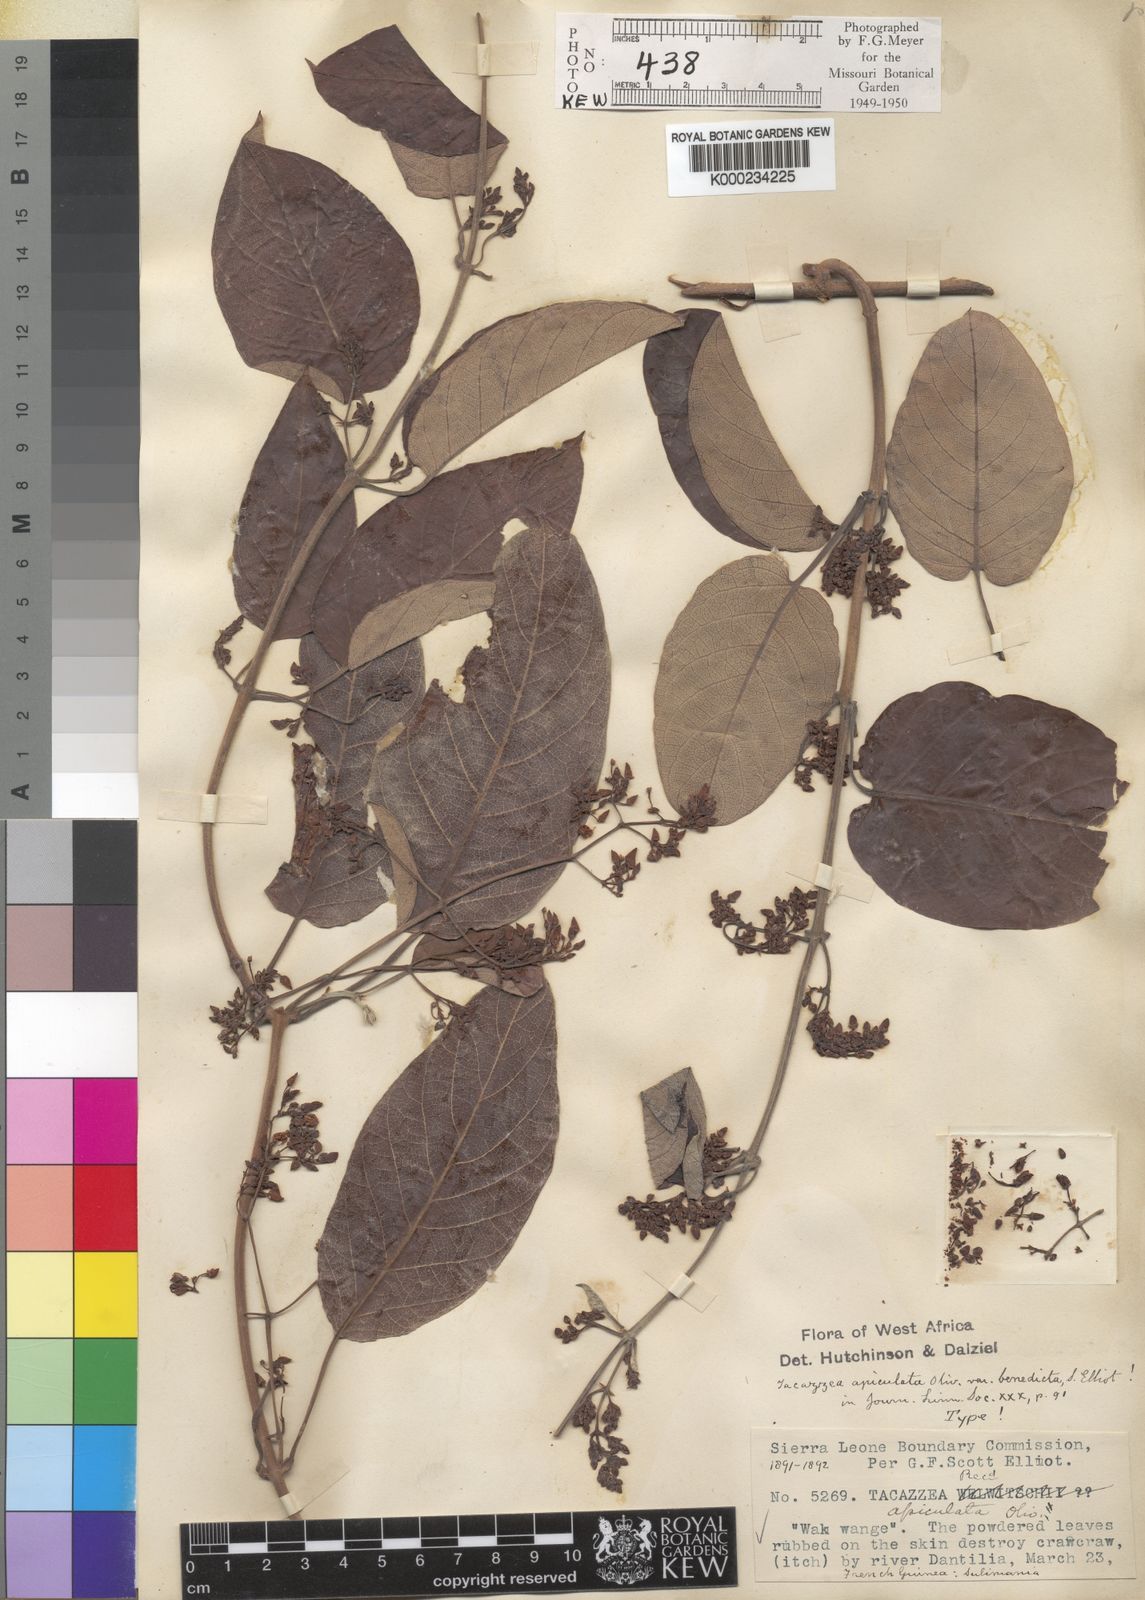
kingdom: Plantae
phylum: Tracheophyta
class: Magnoliopsida
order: Gentianales
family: Apocynaceae
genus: Tacazzea
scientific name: Tacazzea apiculata
